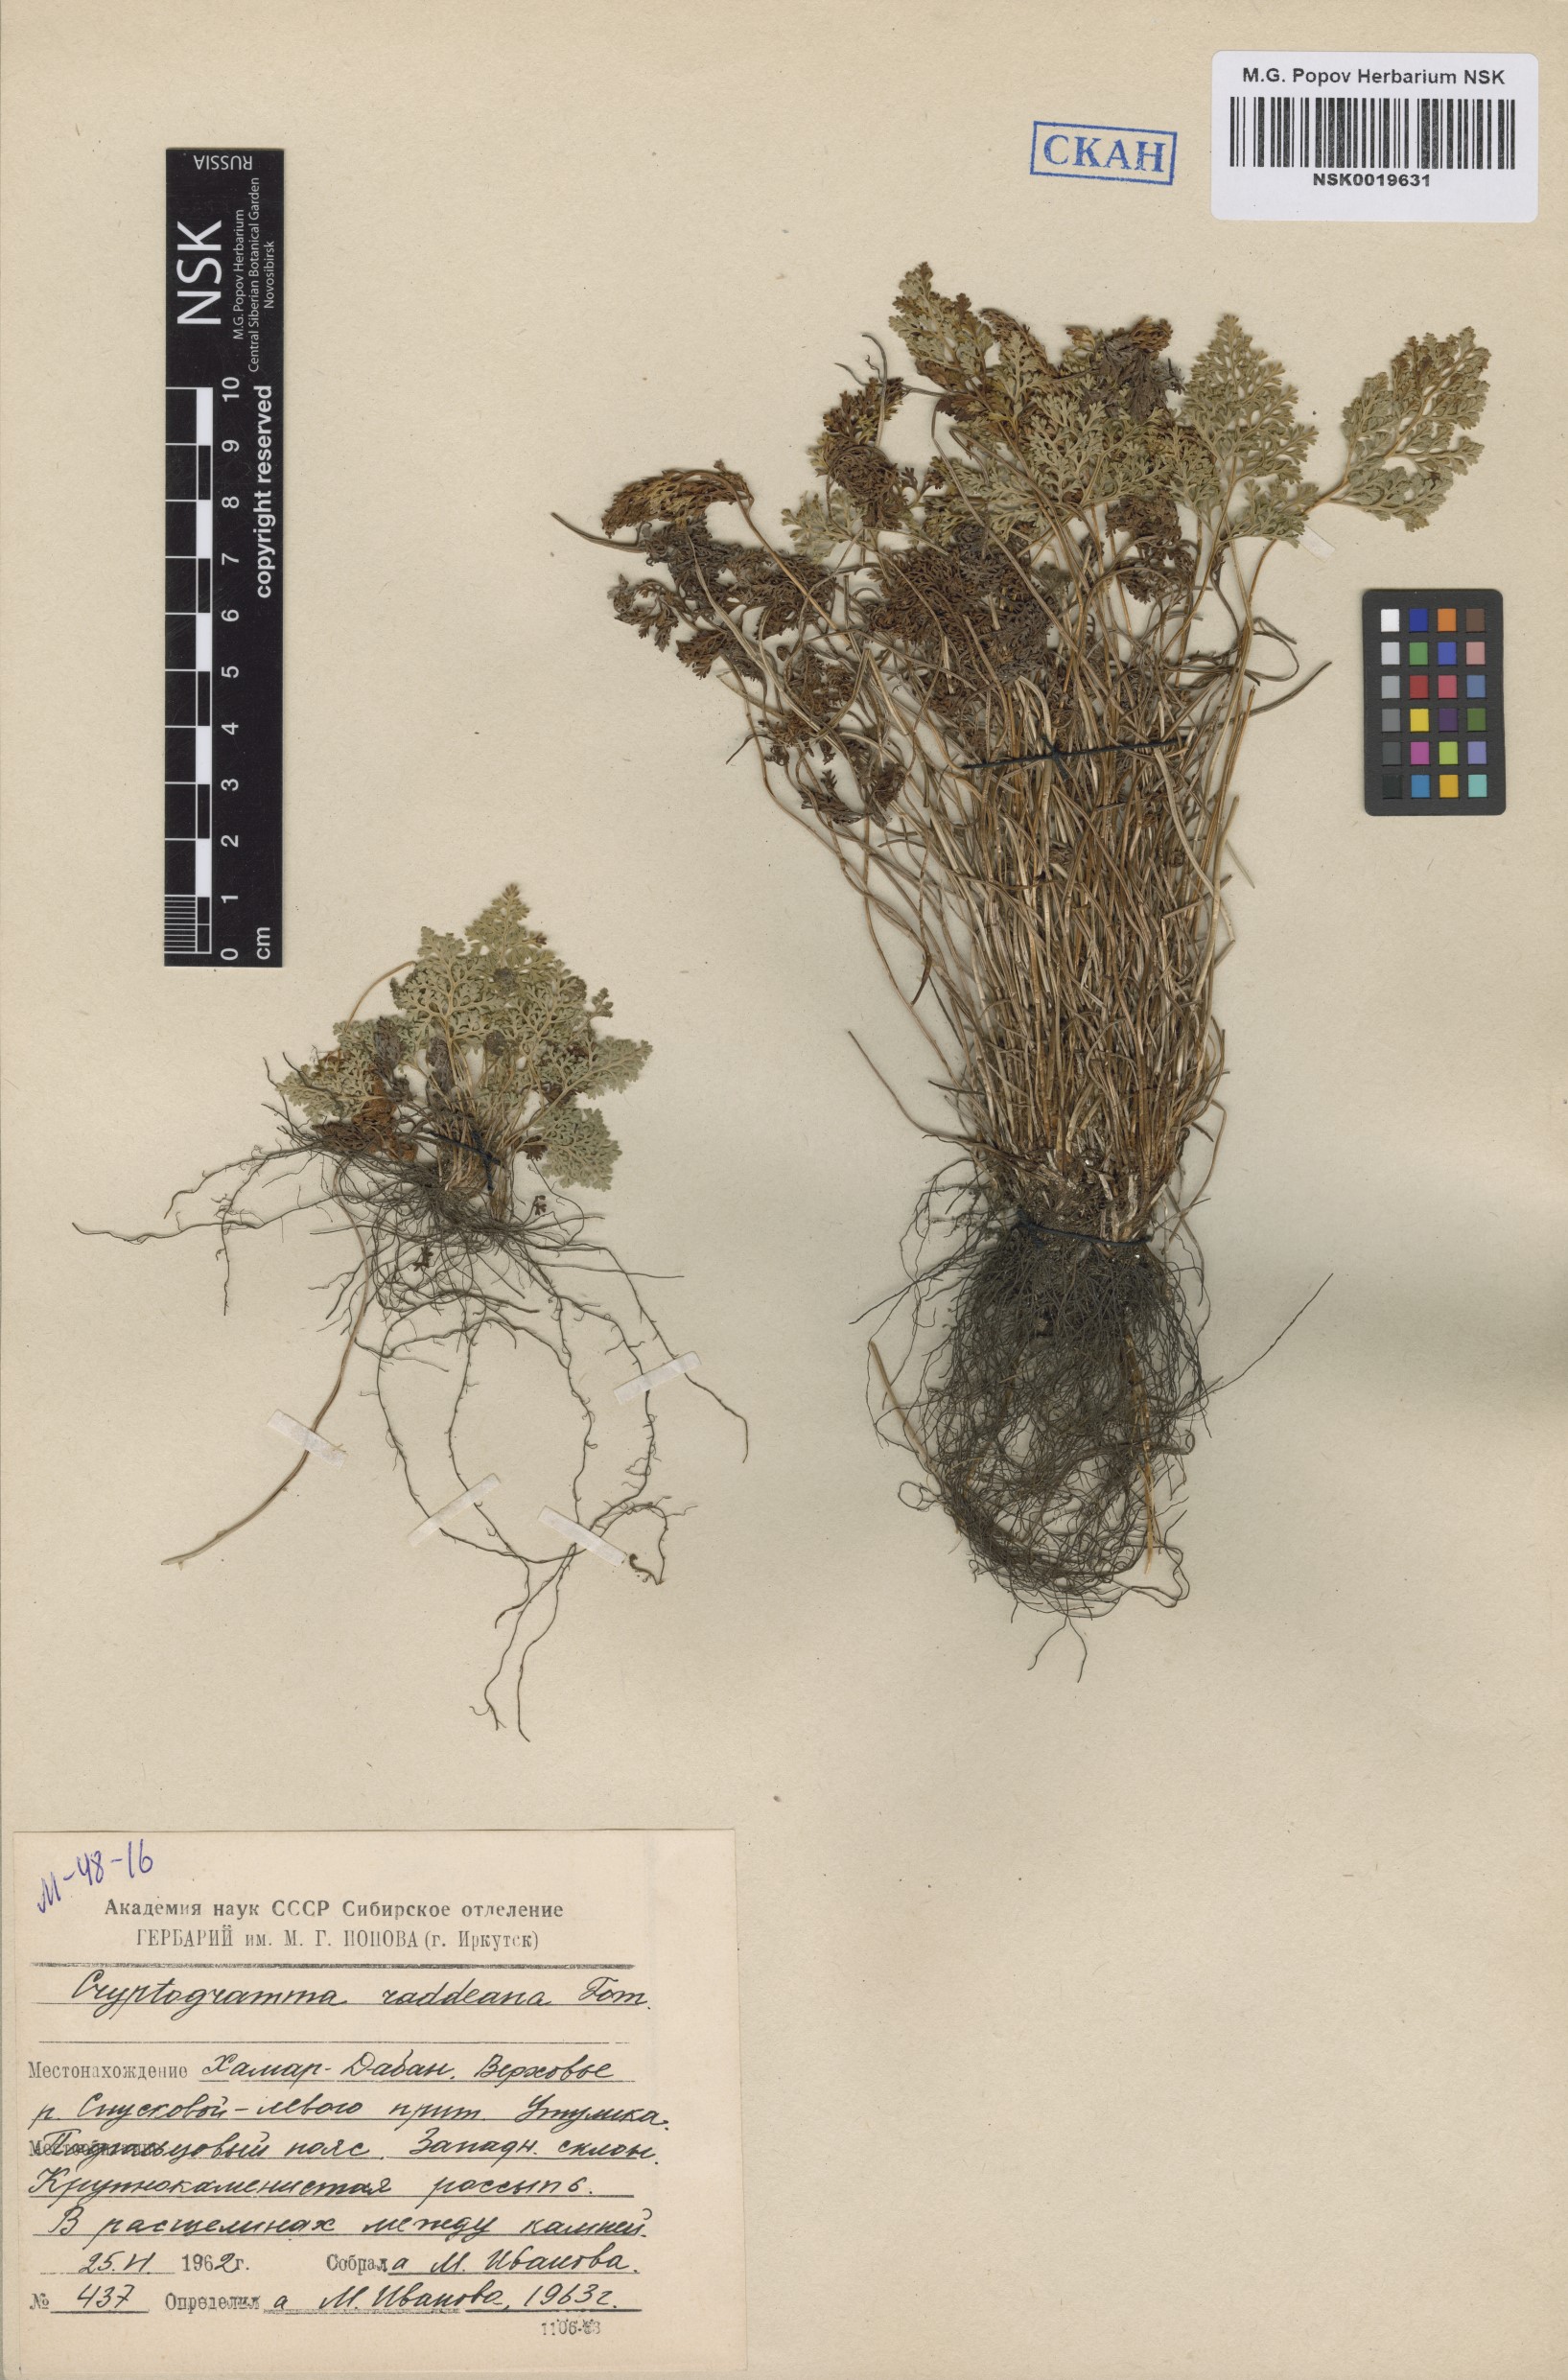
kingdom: Plantae
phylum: Tracheophyta
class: Polypodiopsida
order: Polypodiales
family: Pteridaceae
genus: Cryptogramma
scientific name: Cryptogramma brunoniana
